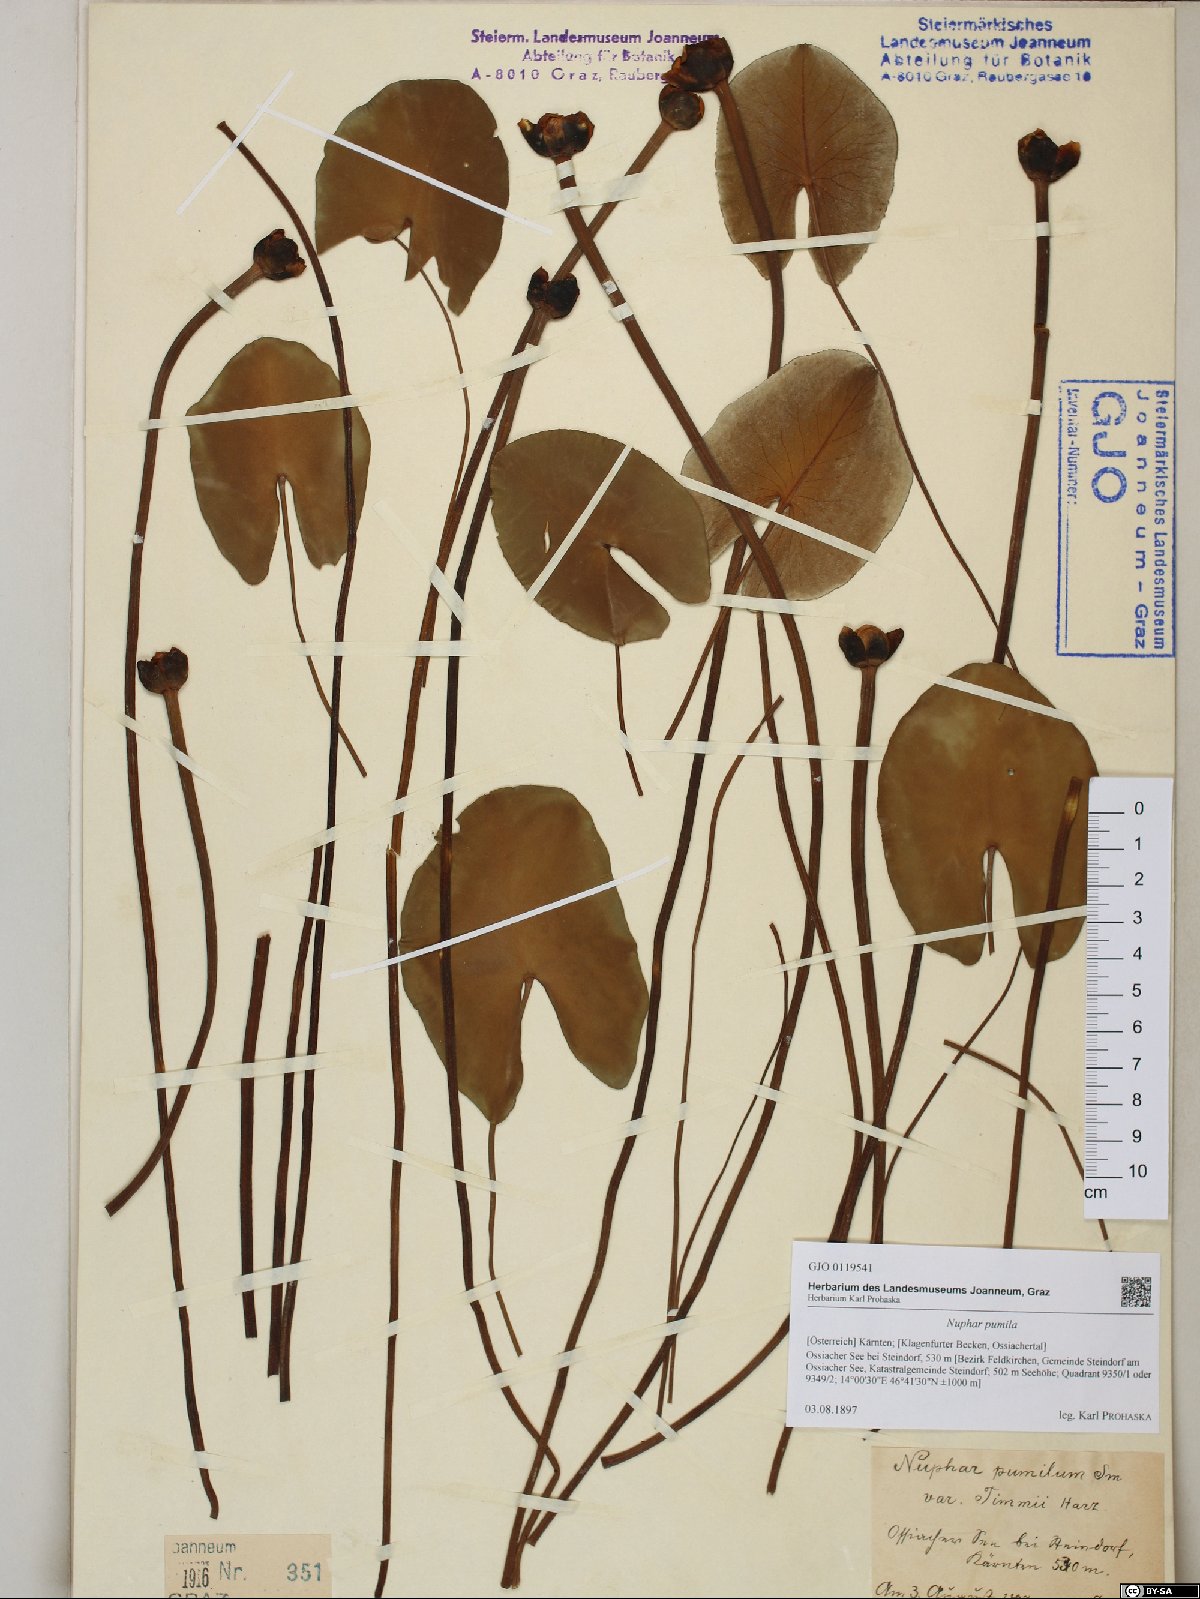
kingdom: Plantae
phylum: Tracheophyta
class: Magnoliopsida
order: Nymphaeales
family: Nymphaeaceae
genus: Nuphar
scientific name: Nuphar pumila
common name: Least water-lily
